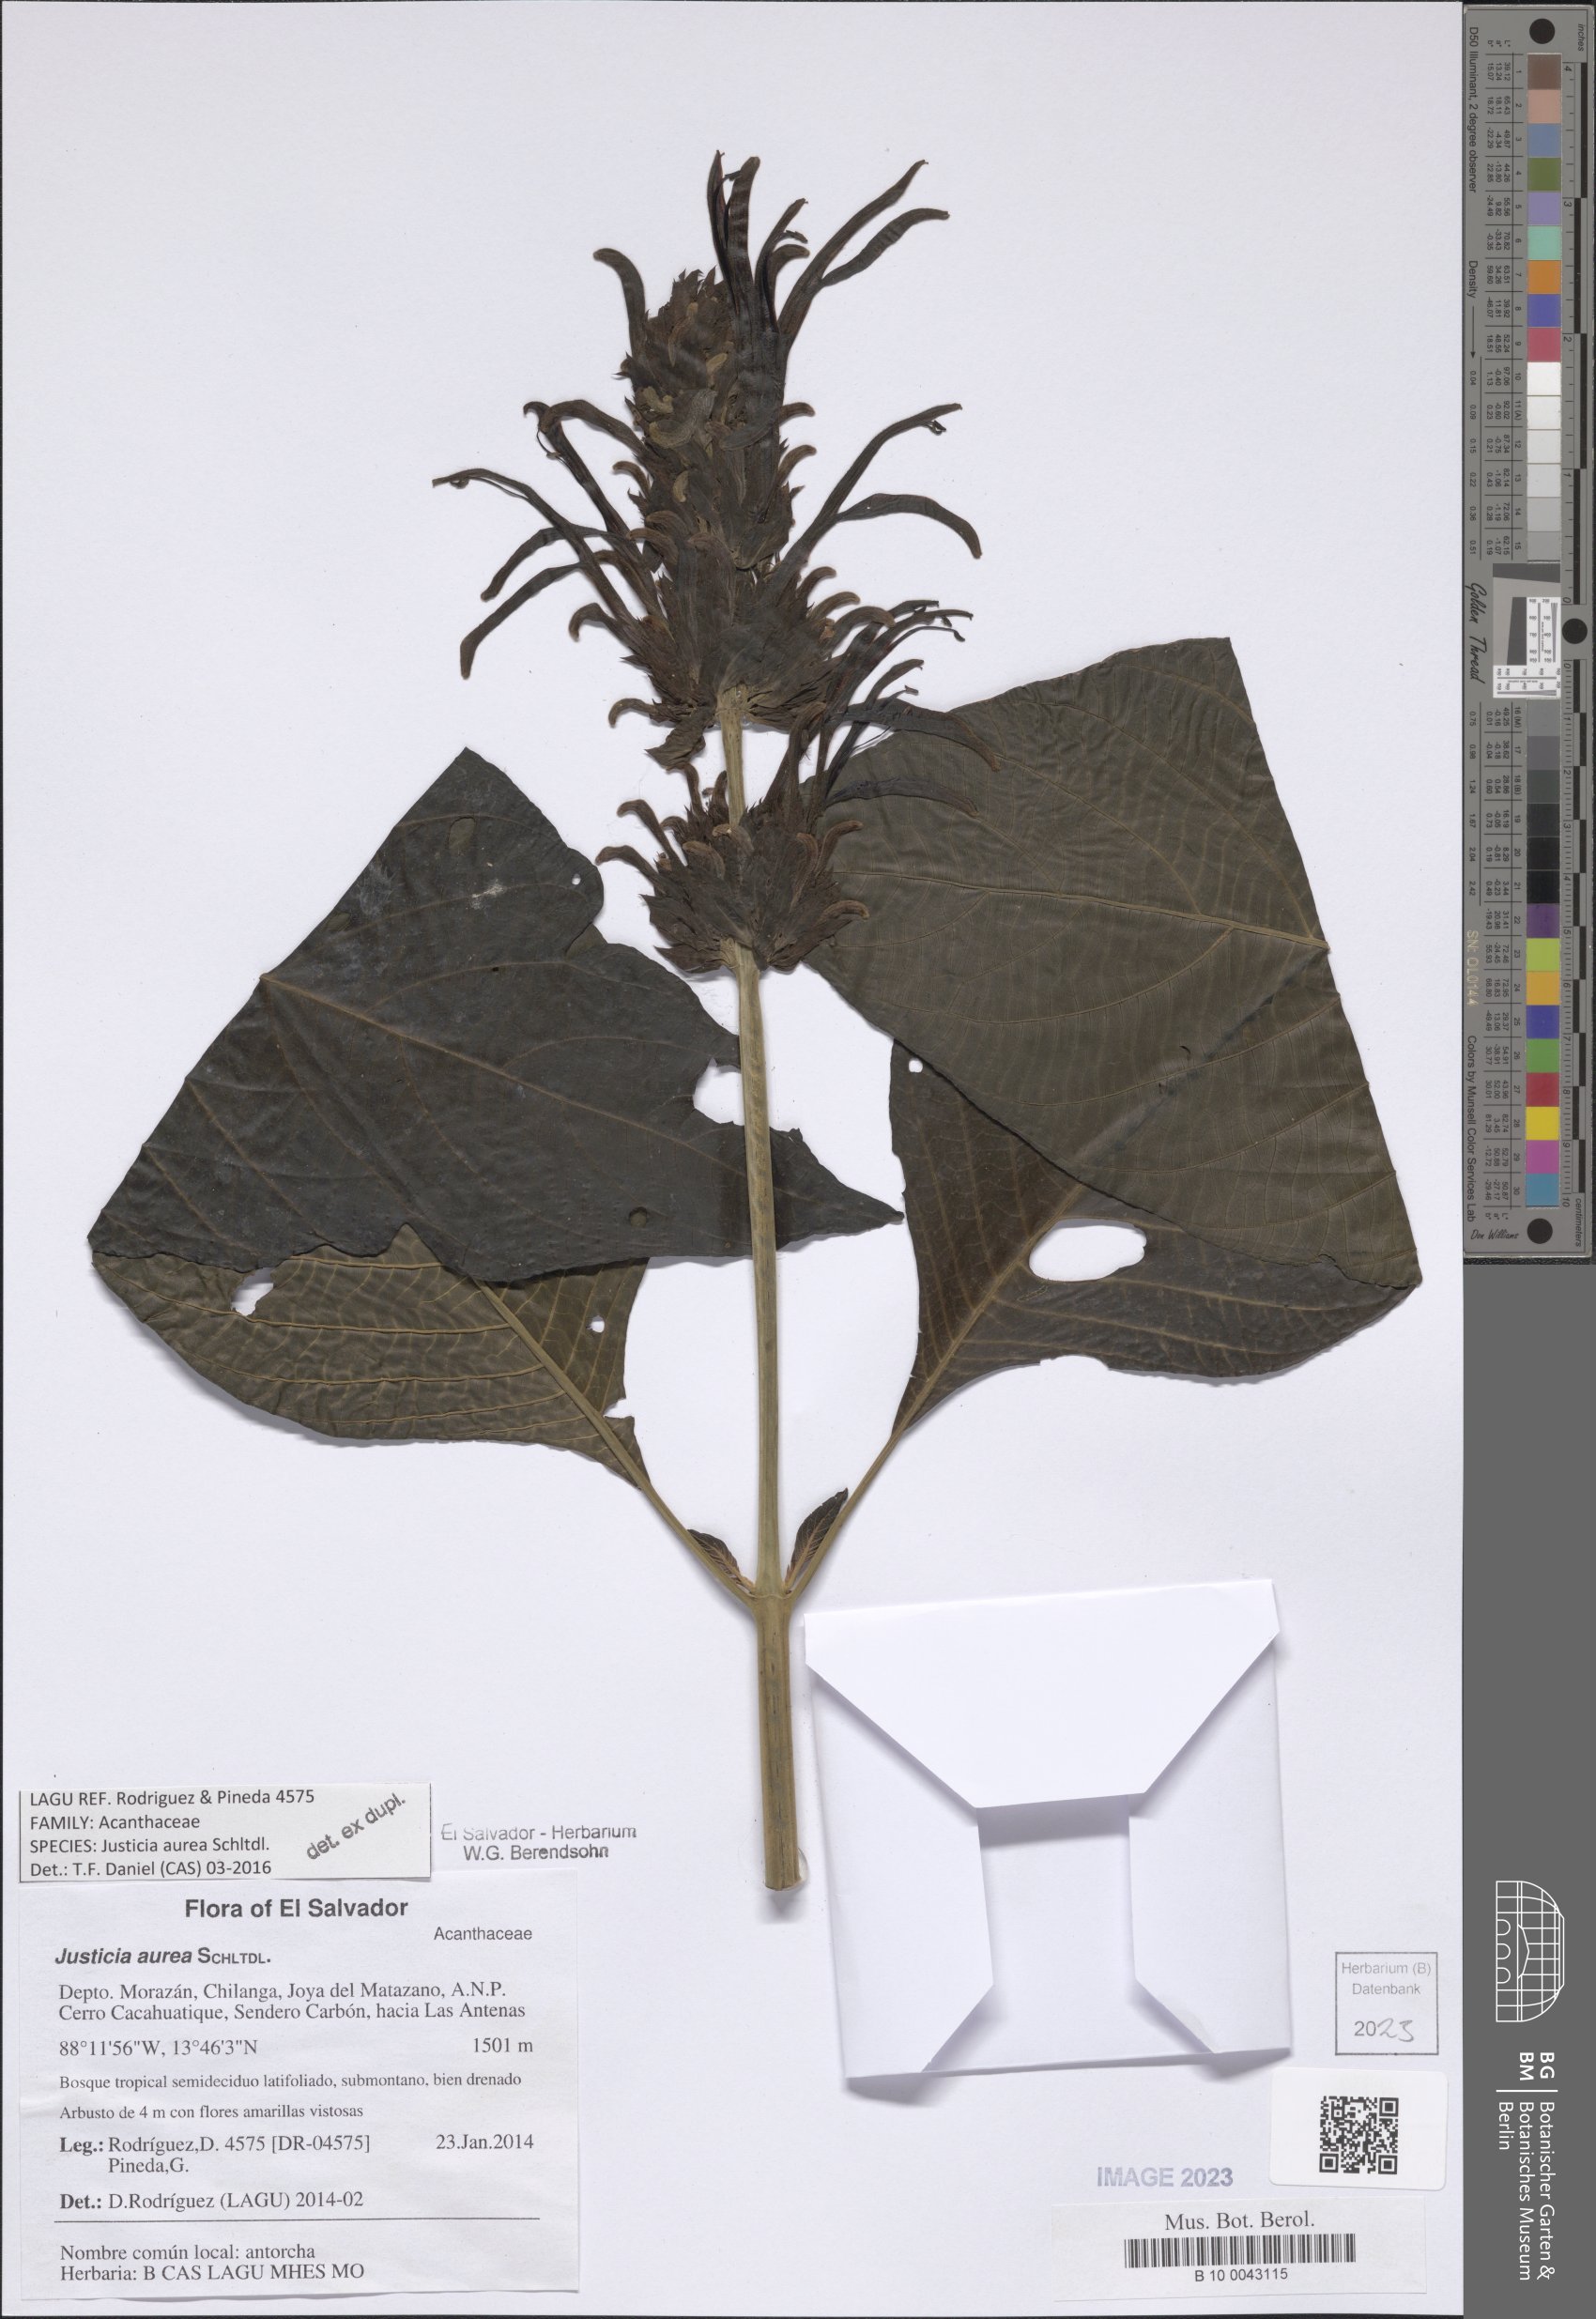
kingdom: Plantae
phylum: Tracheophyta
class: Magnoliopsida
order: Lamiales
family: Acanthaceae
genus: Justicia
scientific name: Justicia aurea
